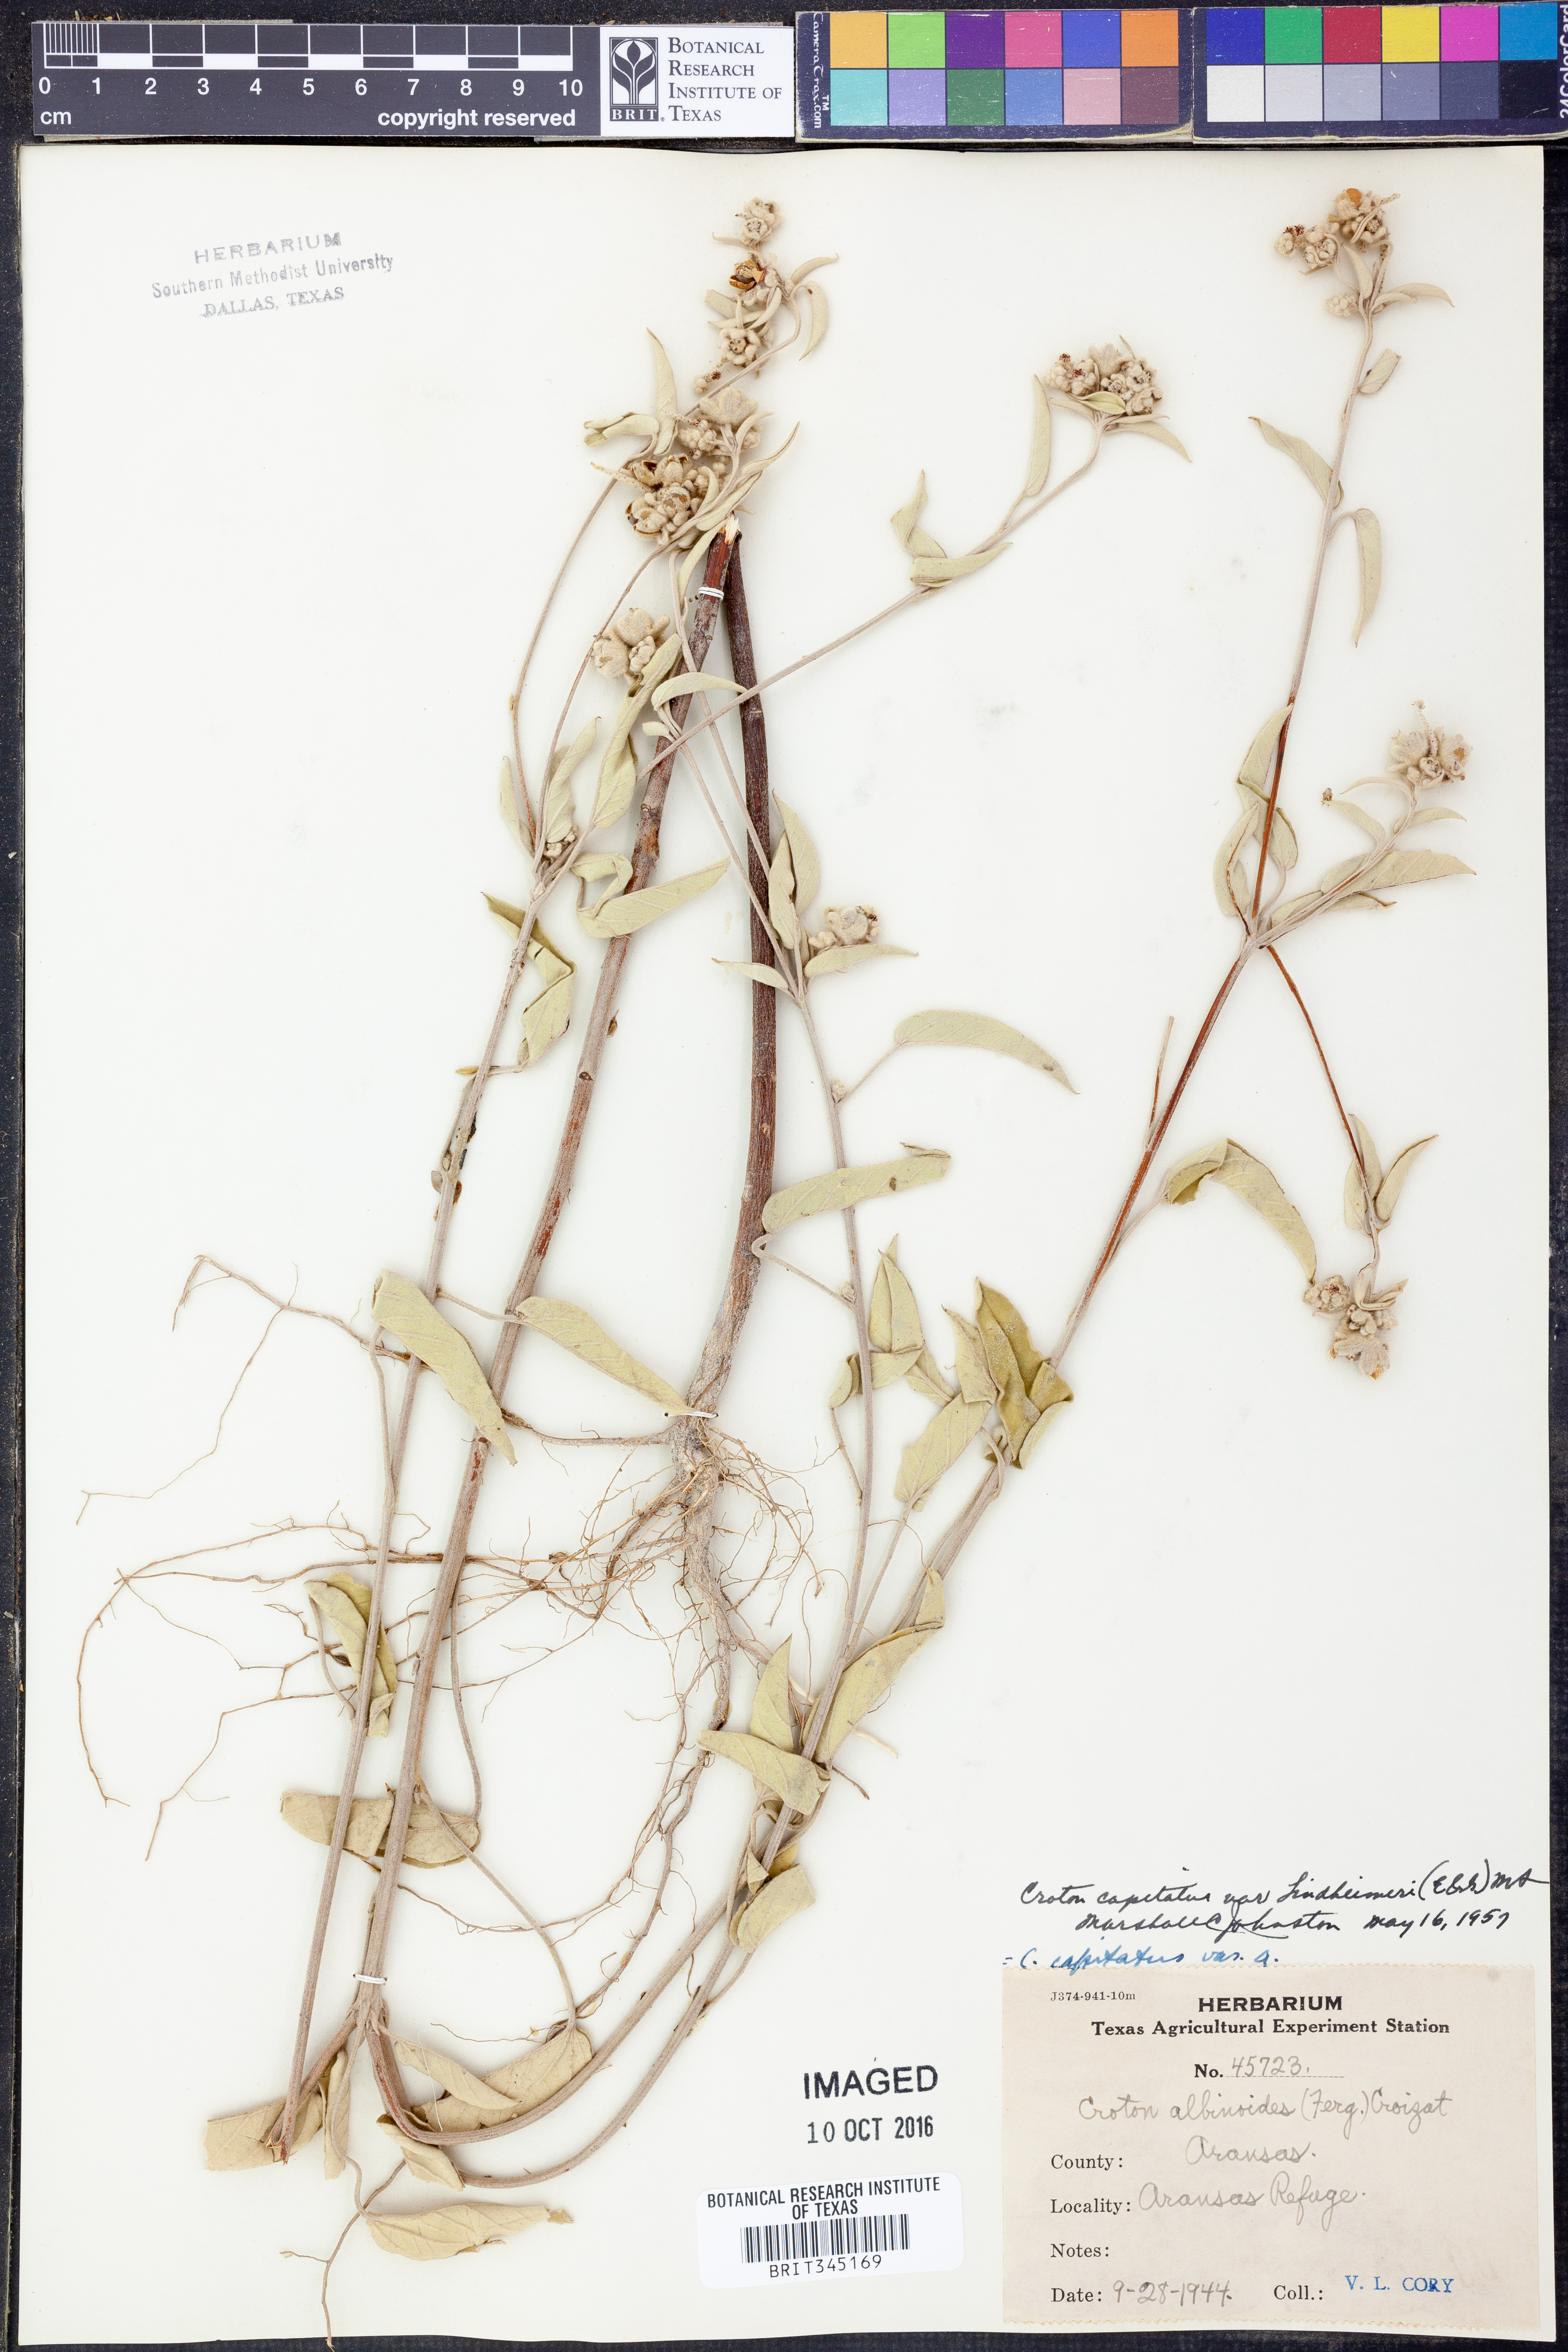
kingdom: Plantae
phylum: Tracheophyta
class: Magnoliopsida
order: Malpighiales
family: Euphorbiaceae
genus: Croton
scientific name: Croton lindheimeri
